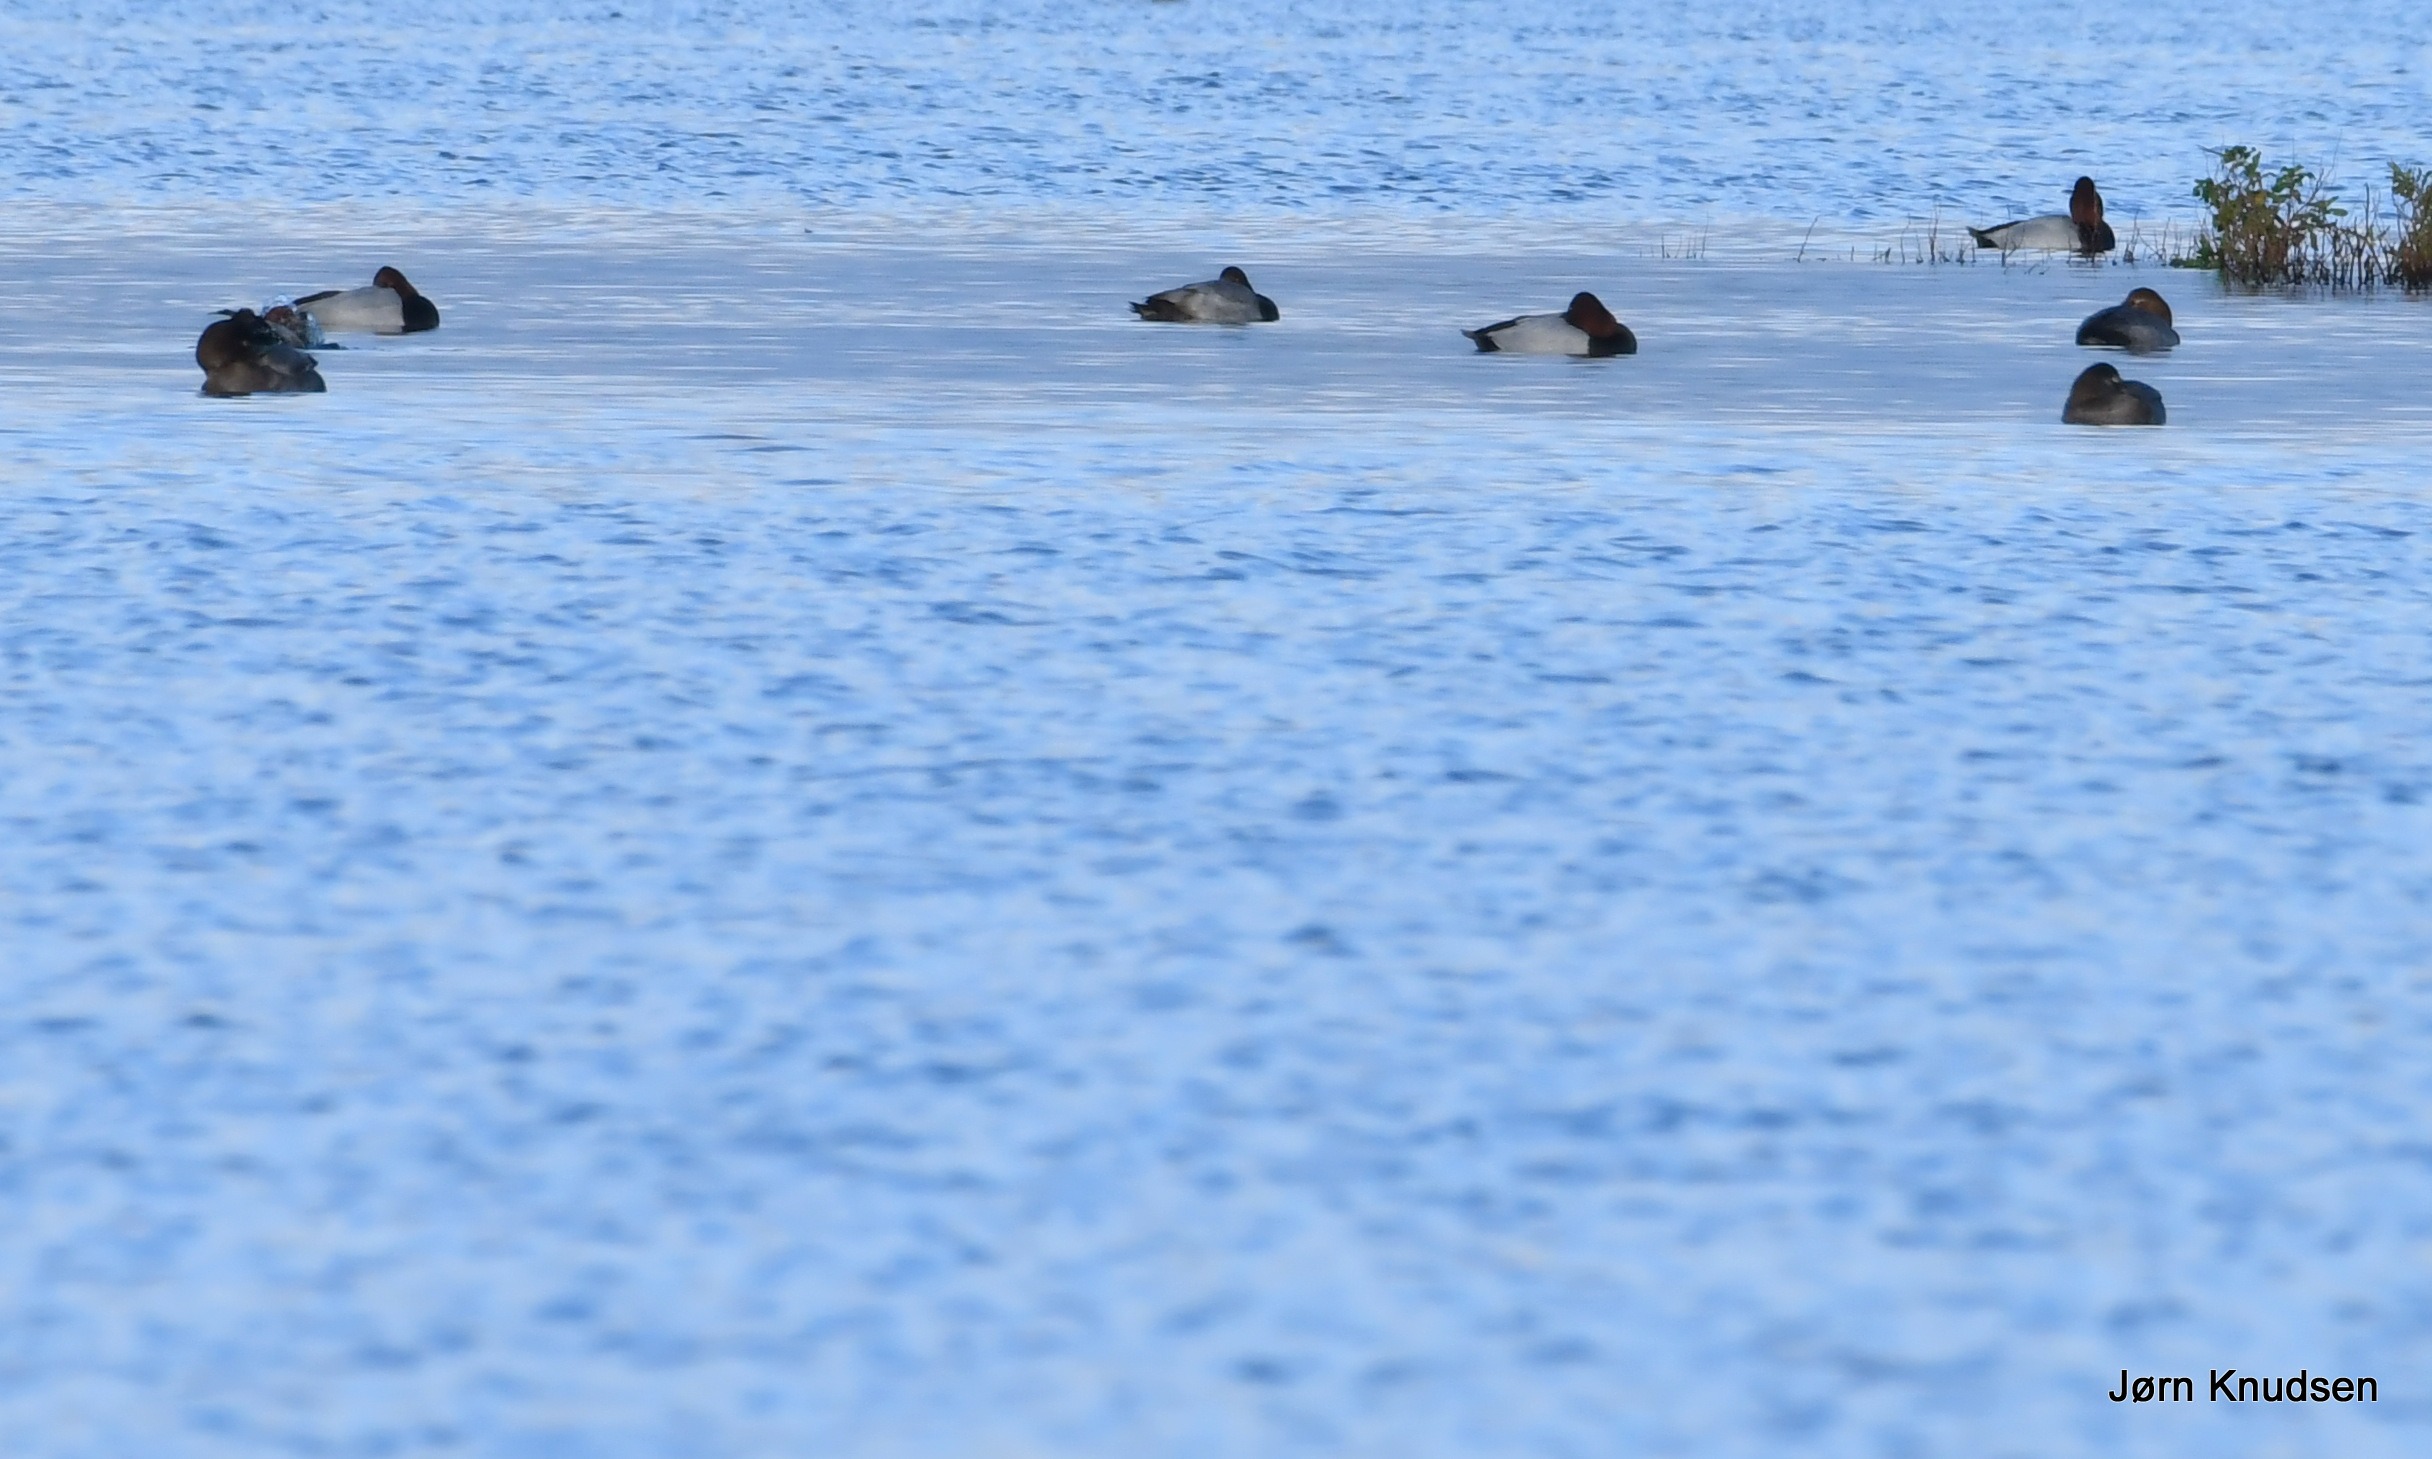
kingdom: Animalia
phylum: Chordata
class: Aves
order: Anseriformes
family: Anatidae
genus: Aythya
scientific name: Aythya ferina
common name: Taffeland
